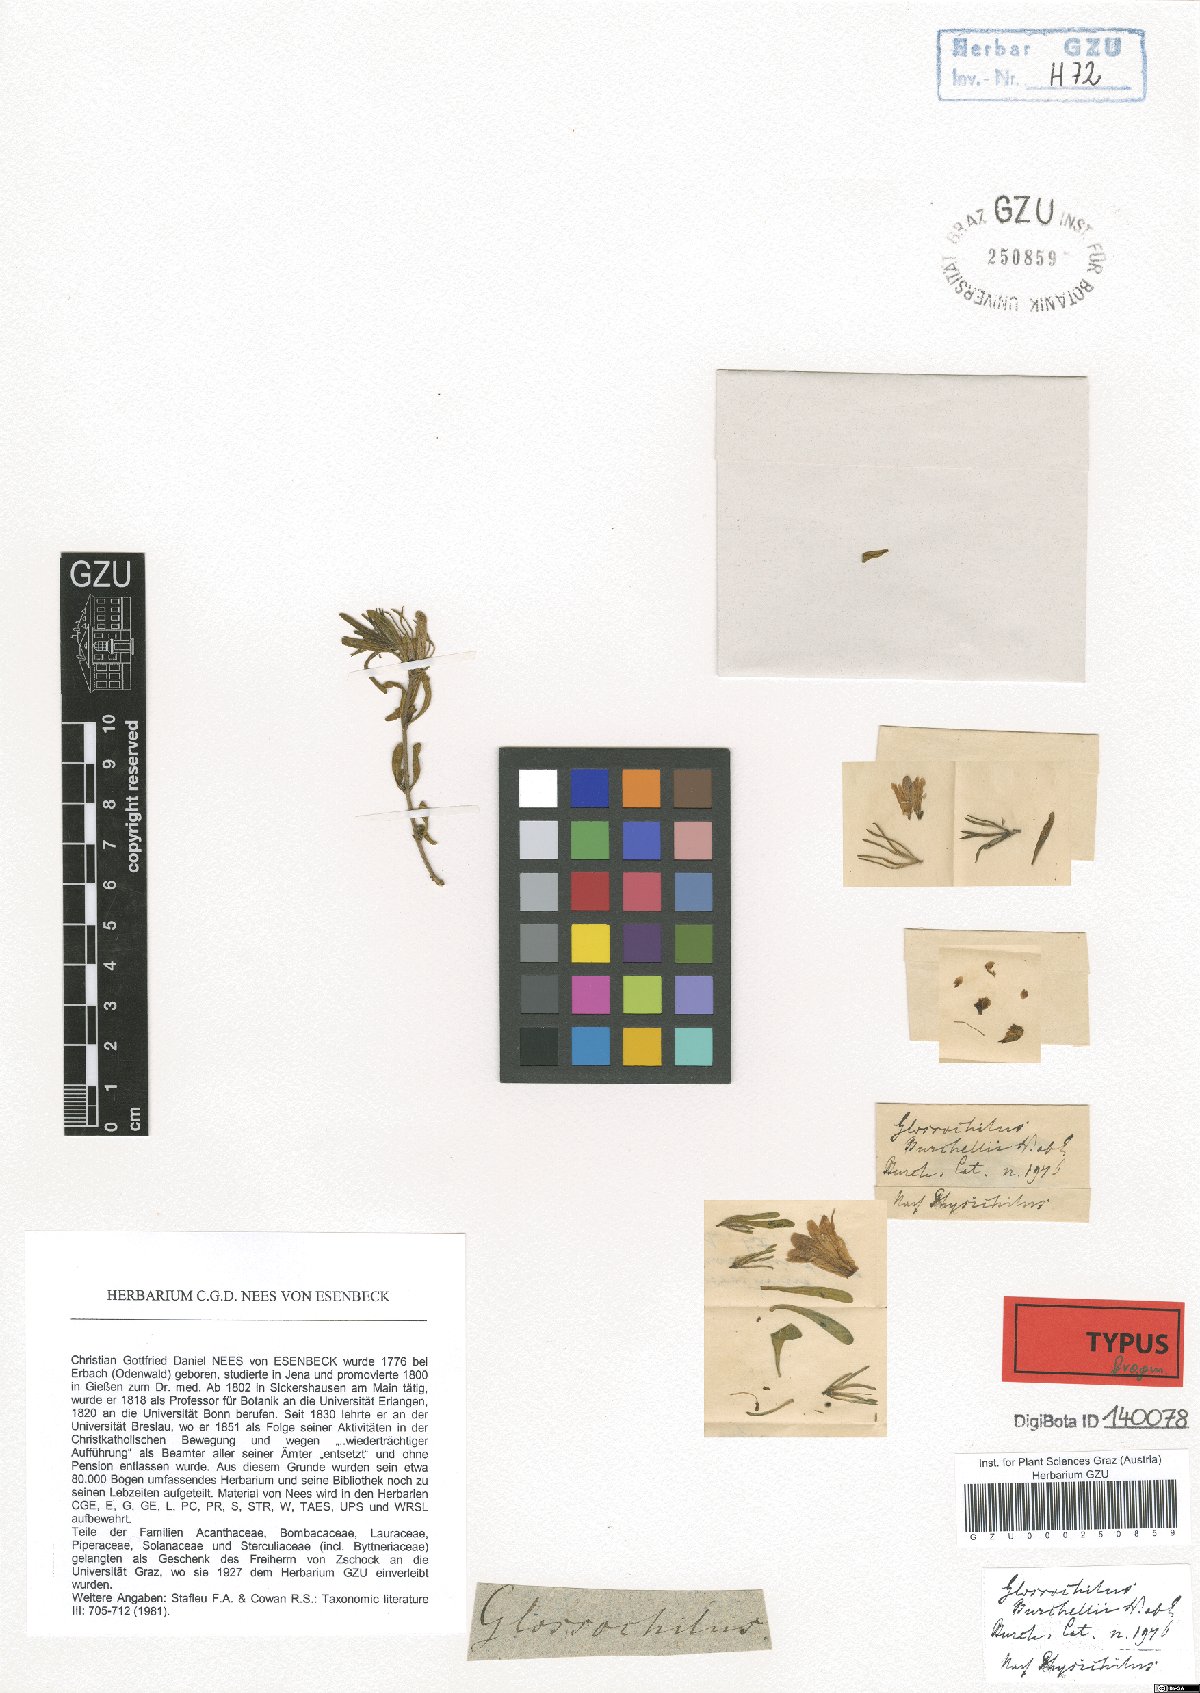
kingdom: Plantae
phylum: Tracheophyta
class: Magnoliopsida
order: Lamiales
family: Acanthaceae
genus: Glossochilus
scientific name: Glossochilus burchellii
